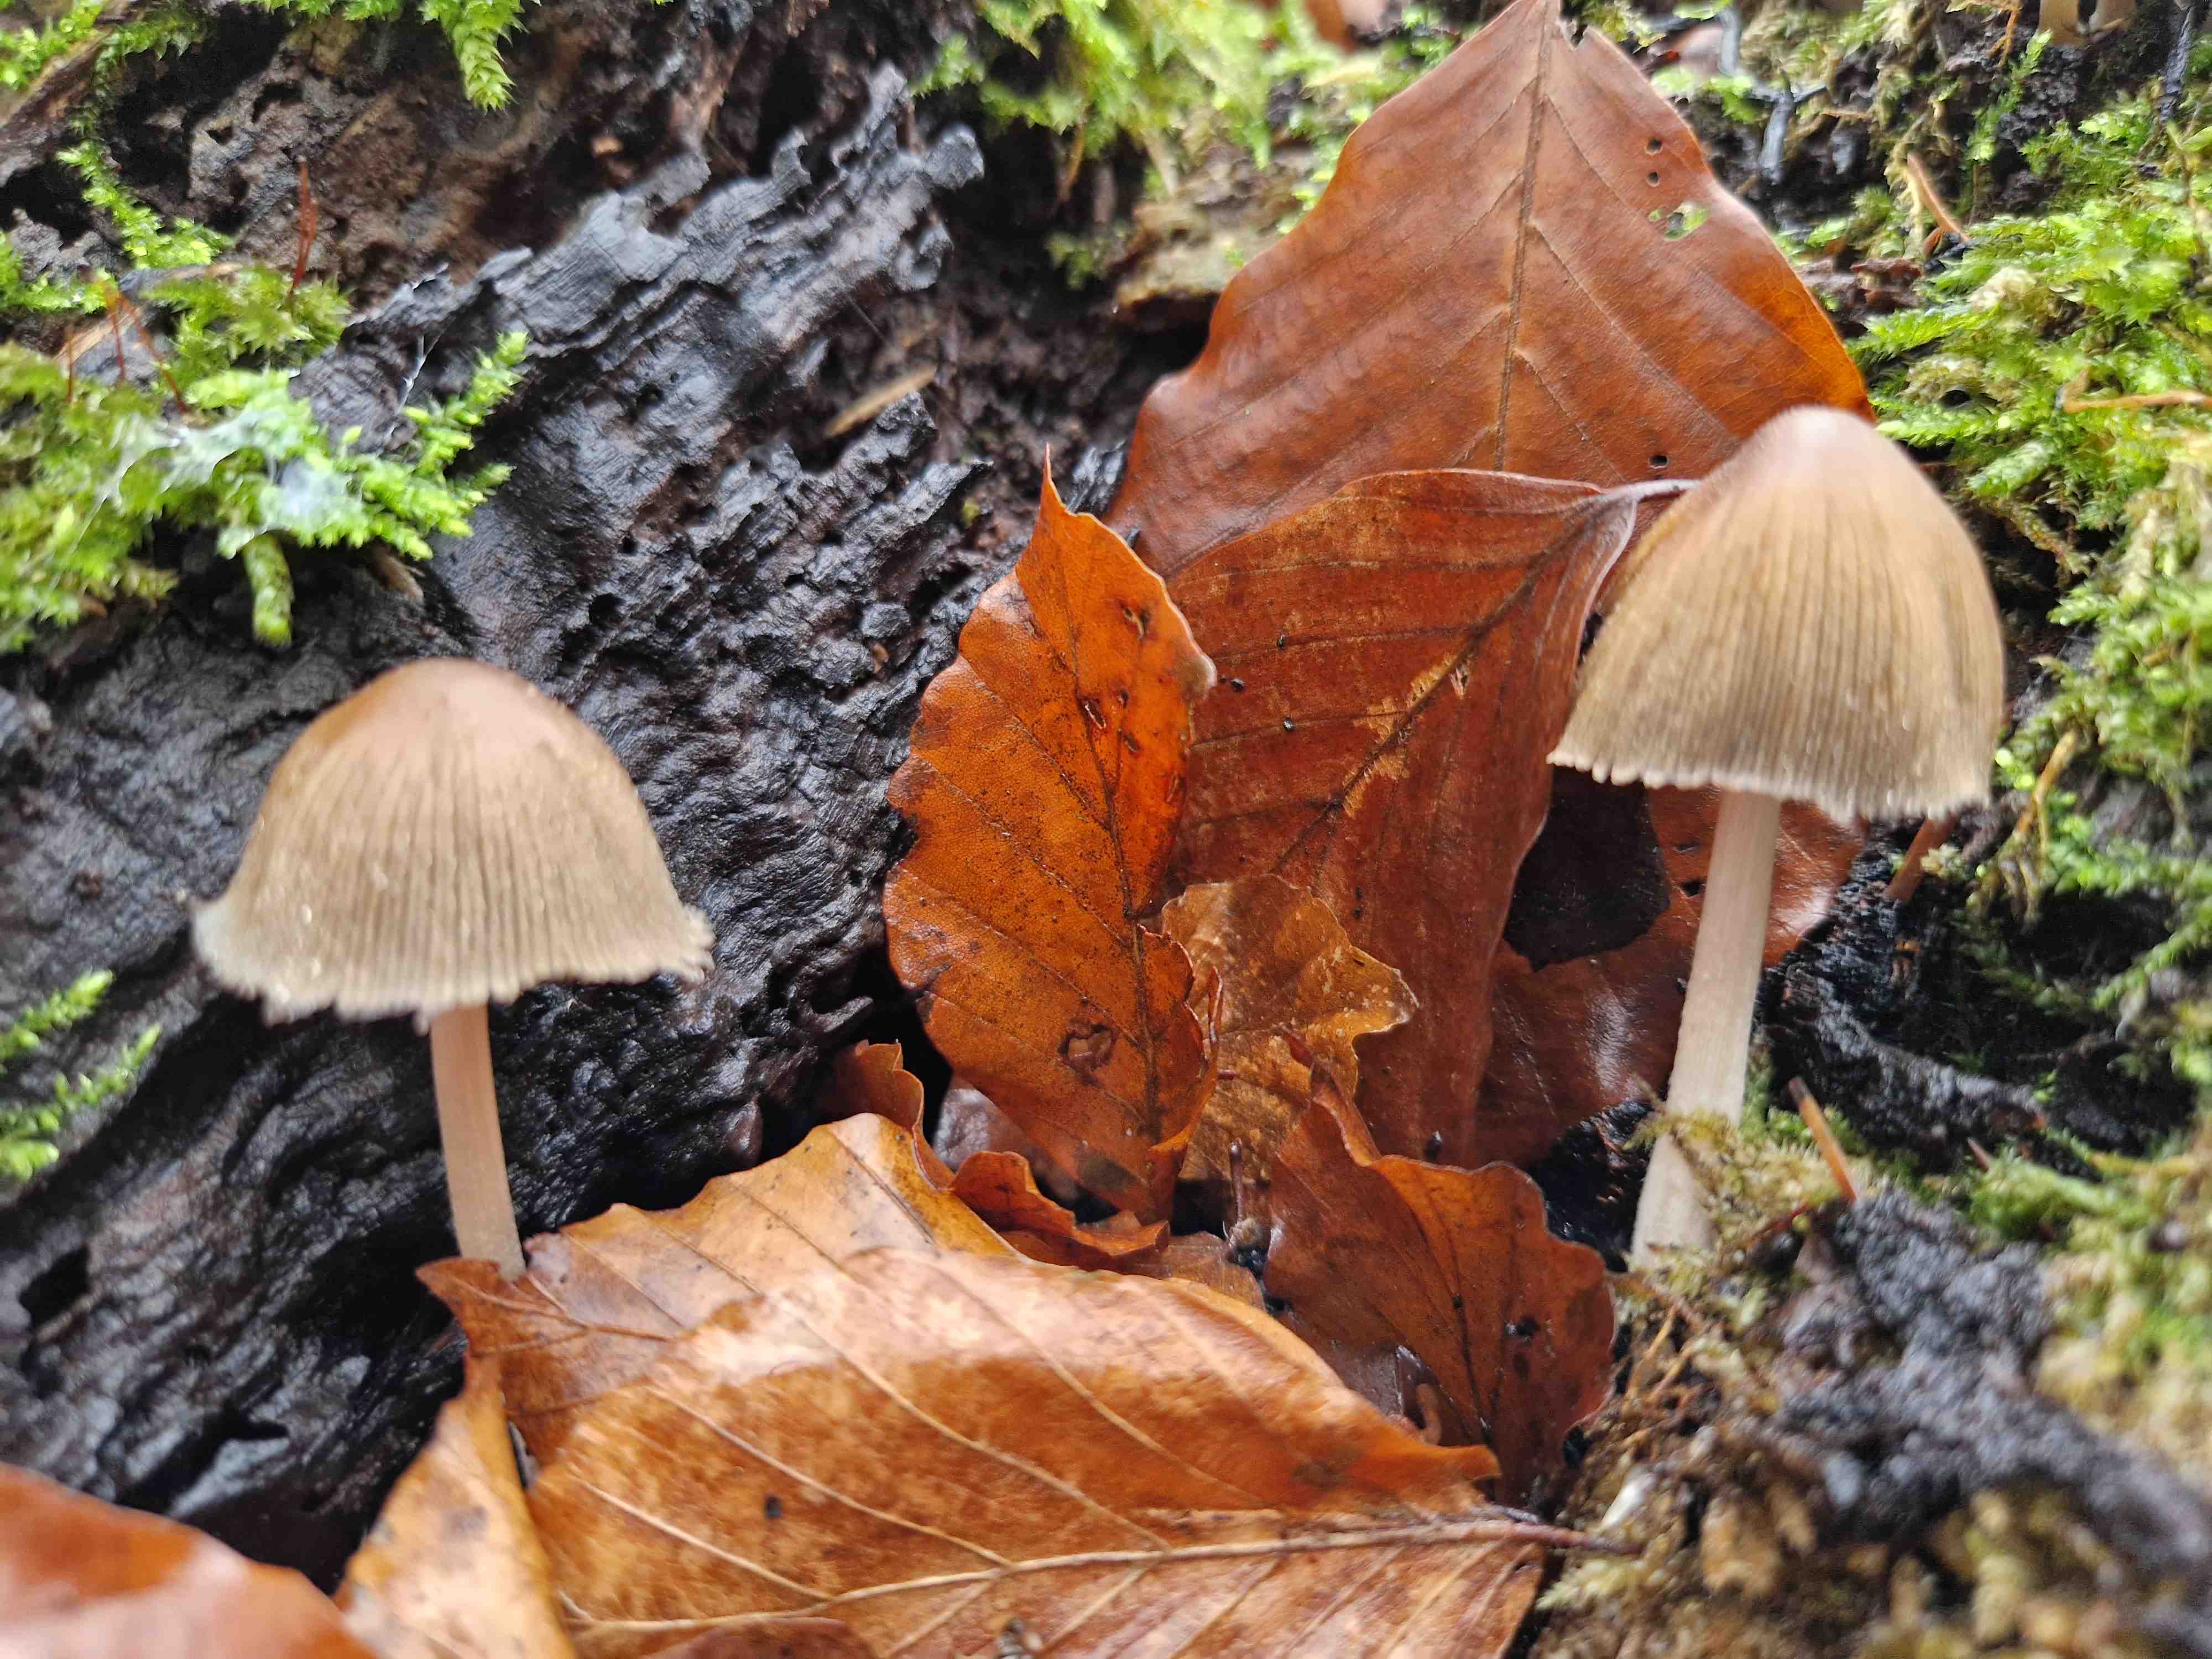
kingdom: Fungi
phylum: Basidiomycota
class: Agaricomycetes
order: Agaricales
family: Psathyrellaceae
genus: Coprinellus
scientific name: Coprinellus
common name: blækhat
